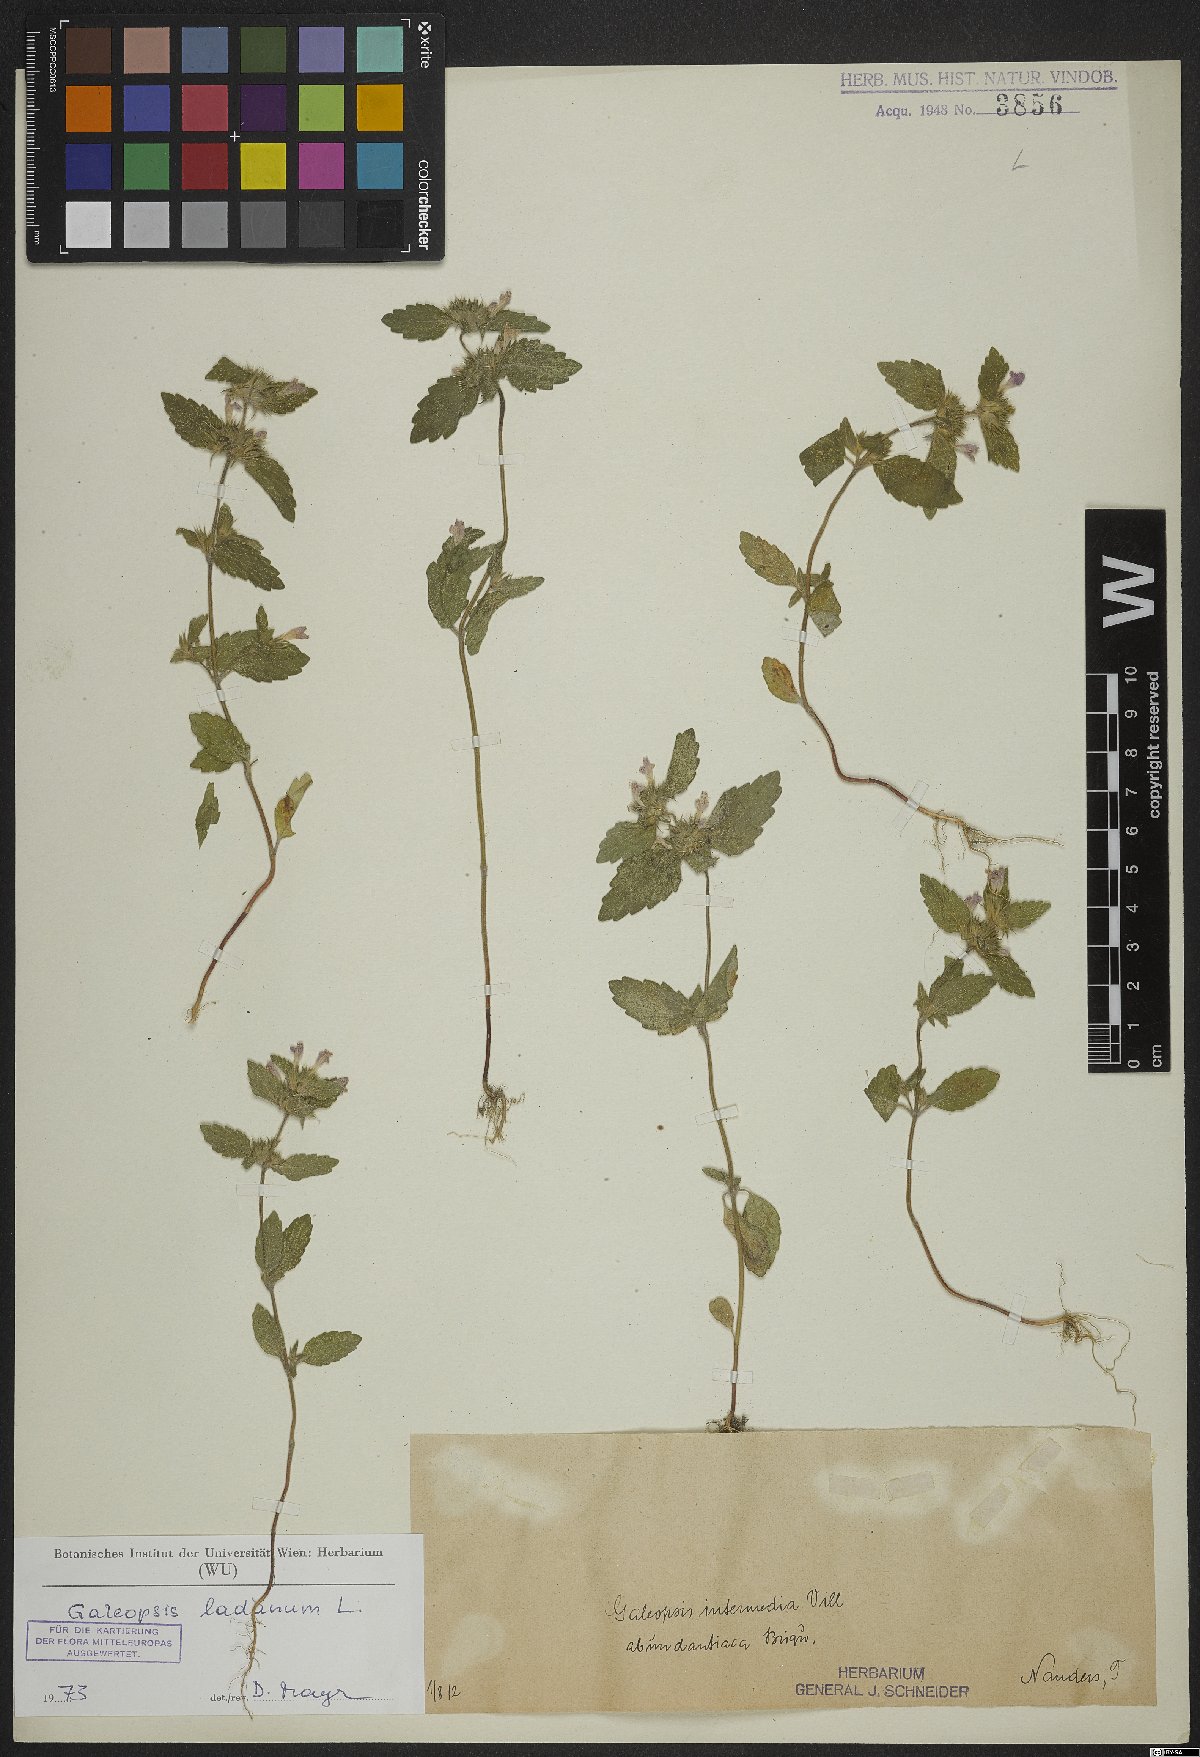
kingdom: Plantae
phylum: Tracheophyta
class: Magnoliopsida
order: Lamiales
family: Lamiaceae
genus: Galeopsis
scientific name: Galeopsis ladanum
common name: Broad-leaved hemp-nettle
